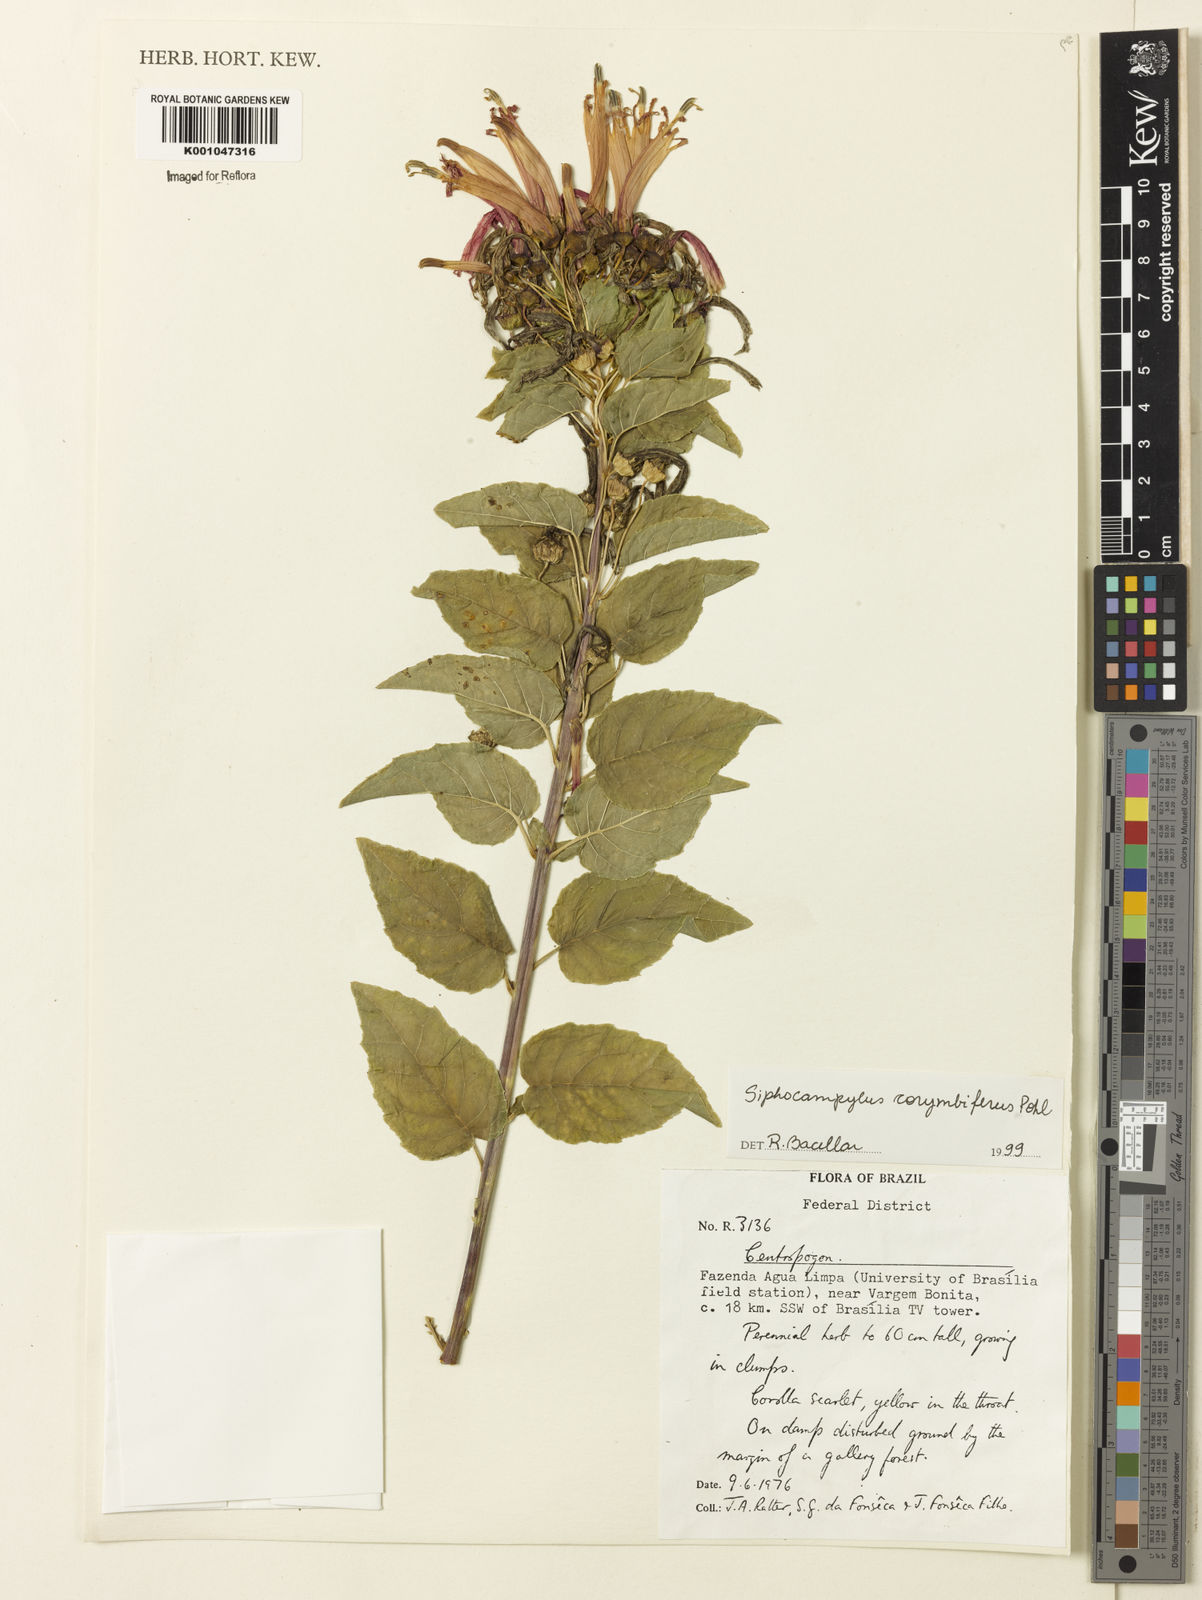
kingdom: Plantae
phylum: Tracheophyta
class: Magnoliopsida
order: Asterales
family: Campanulaceae
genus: Siphocampylus
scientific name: Siphocampylus corymbifer
